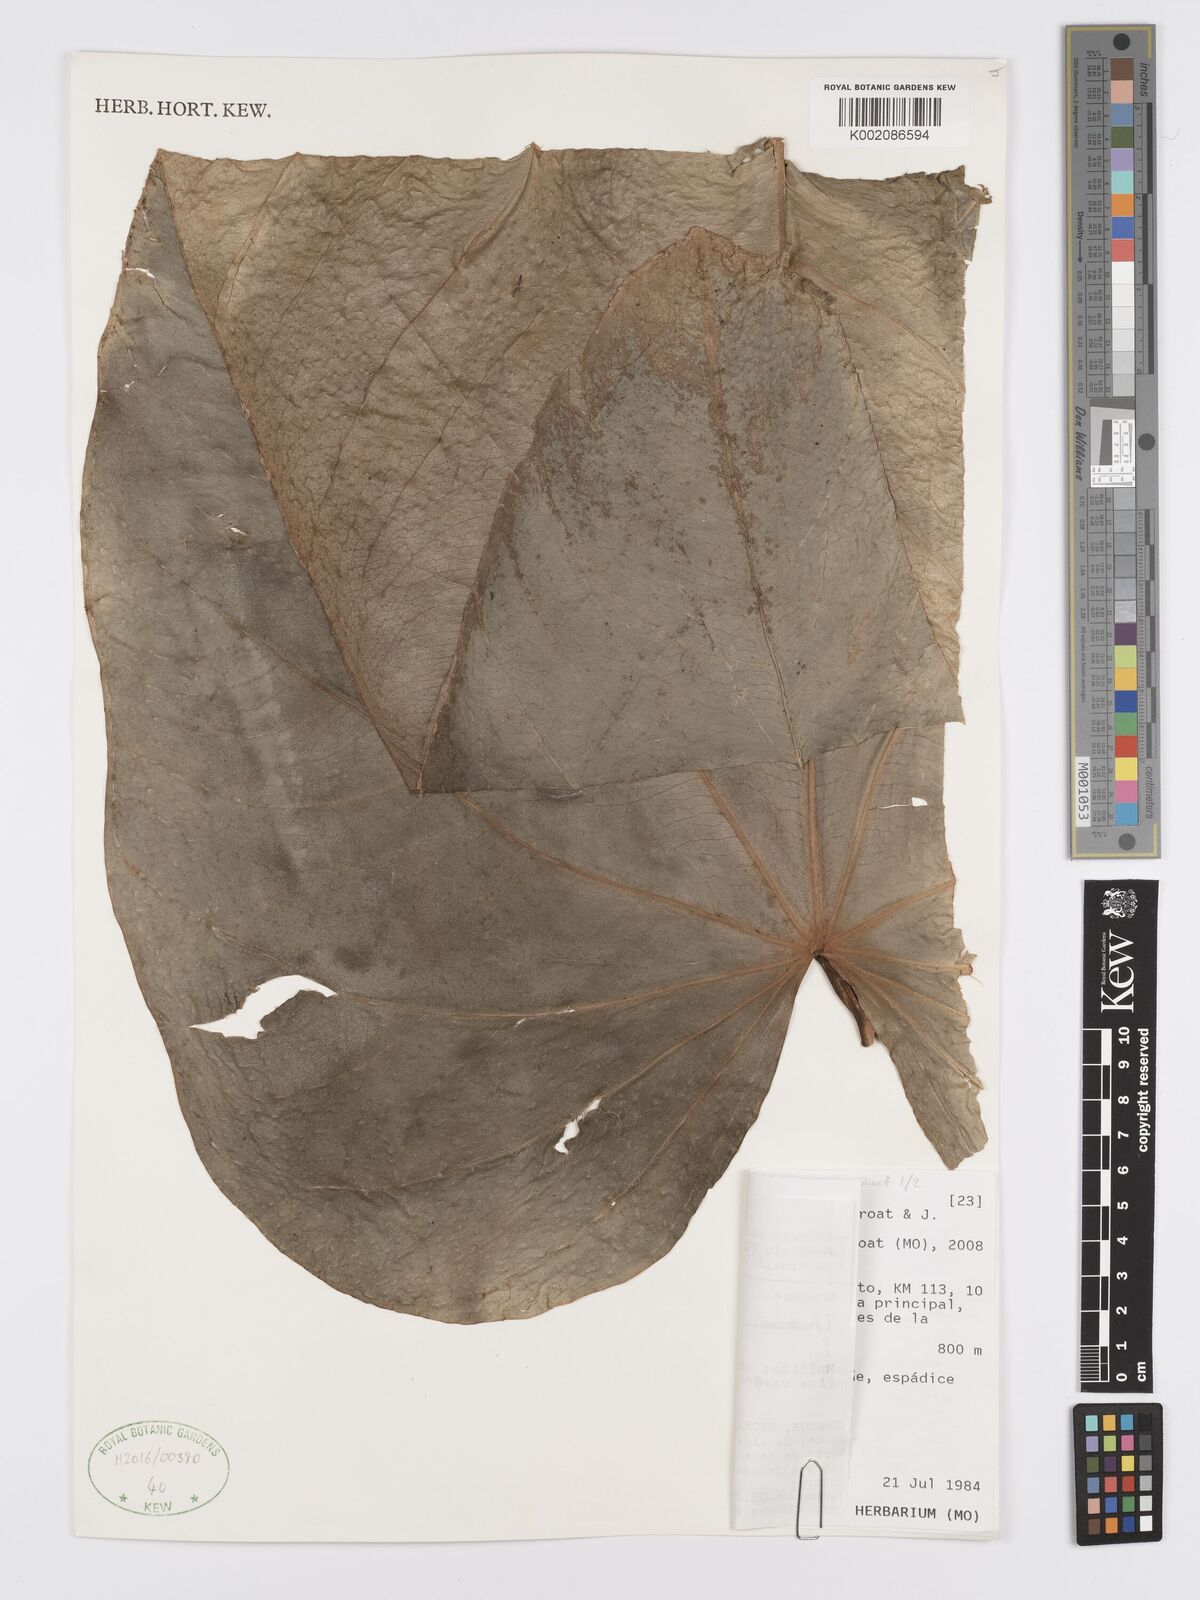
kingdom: Plantae
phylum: Tracheophyta
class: Liliopsida
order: Alismatales
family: Araceae
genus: Anthurium
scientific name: Anthurium nigropunctatum
